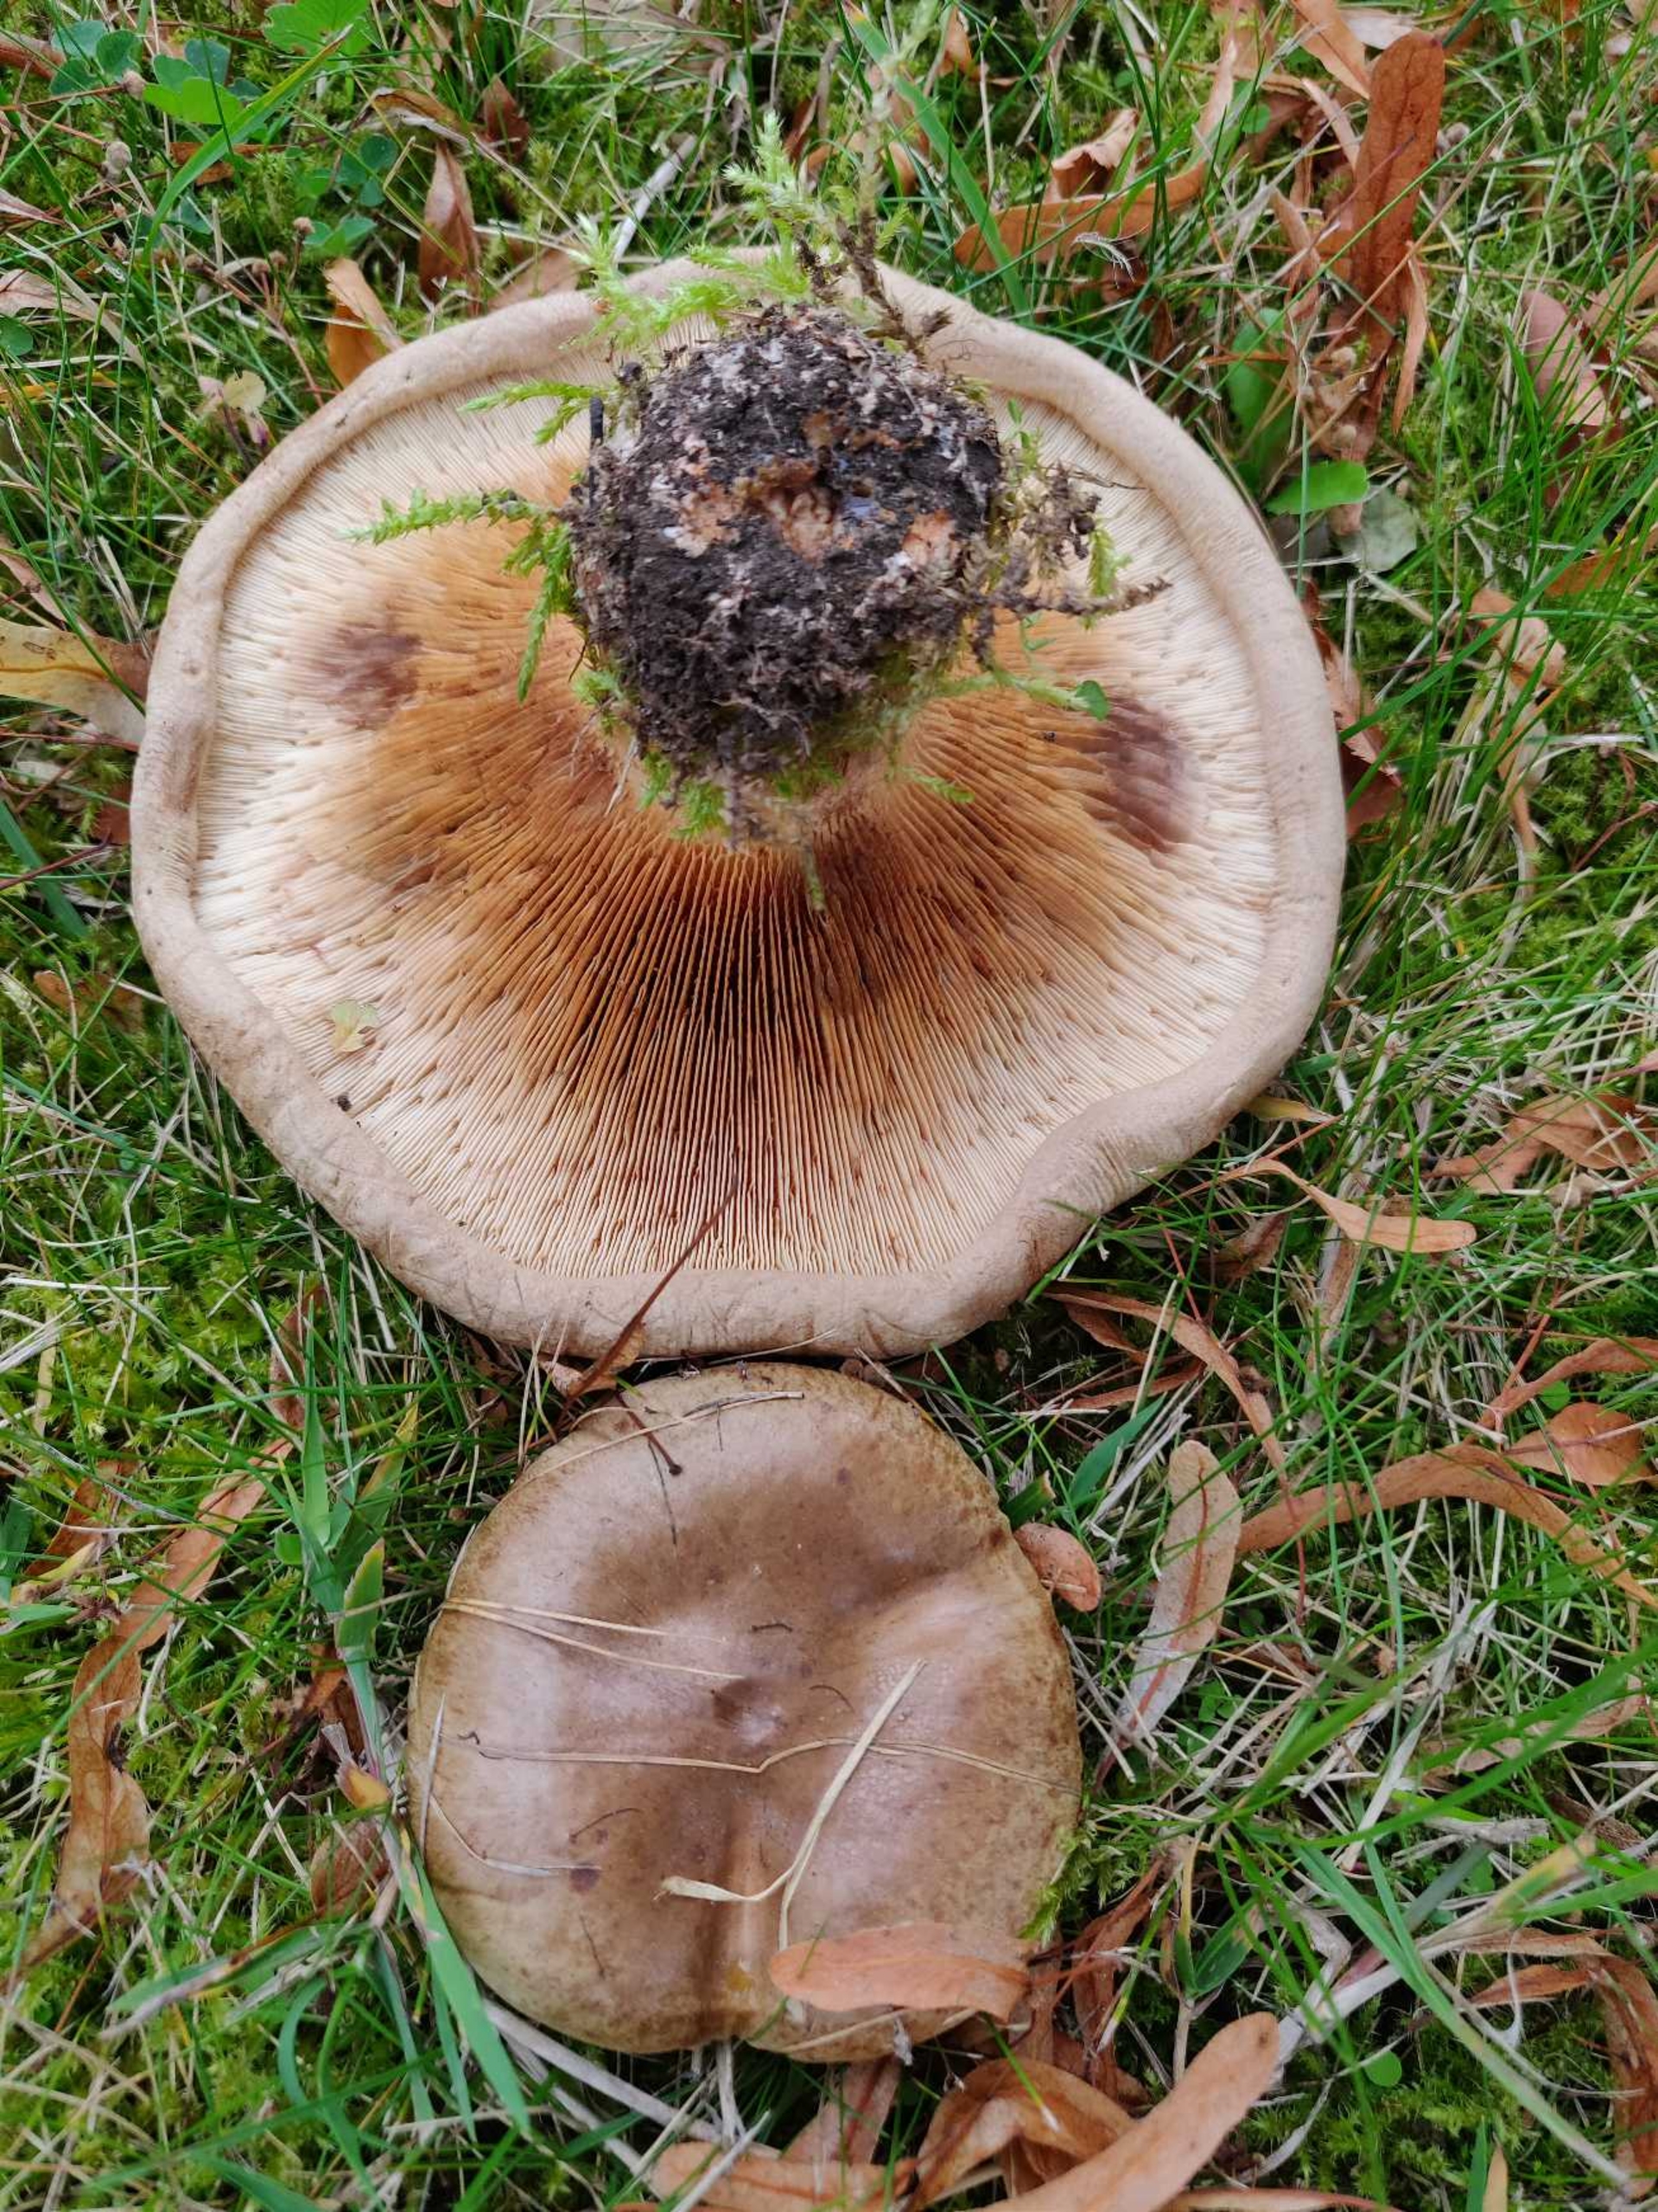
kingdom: Fungi
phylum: Basidiomycota
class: Agaricomycetes
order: Boletales
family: Paxillaceae
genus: Paxillus
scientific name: Paxillus
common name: Netbladhat
